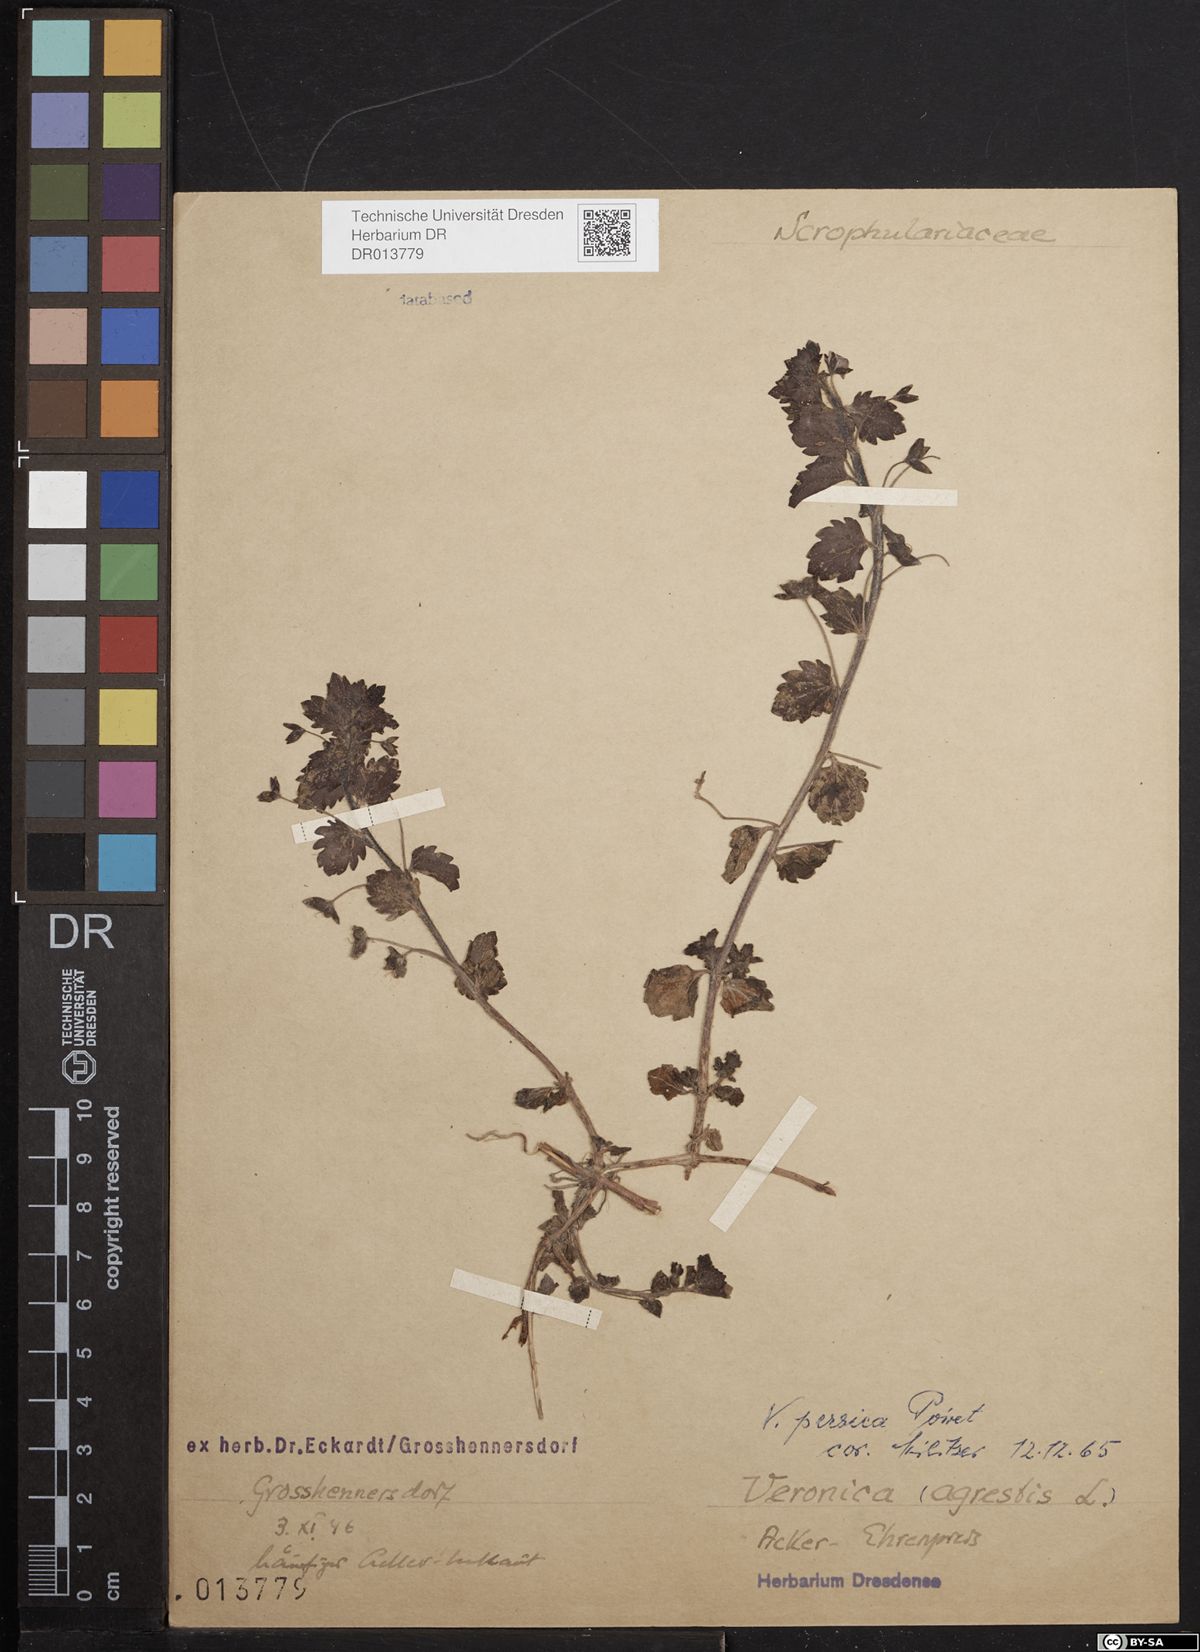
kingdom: Plantae
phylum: Tracheophyta
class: Magnoliopsida
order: Lamiales
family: Plantaginaceae
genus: Veronica
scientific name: Veronica persica
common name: Common field-speedwell
